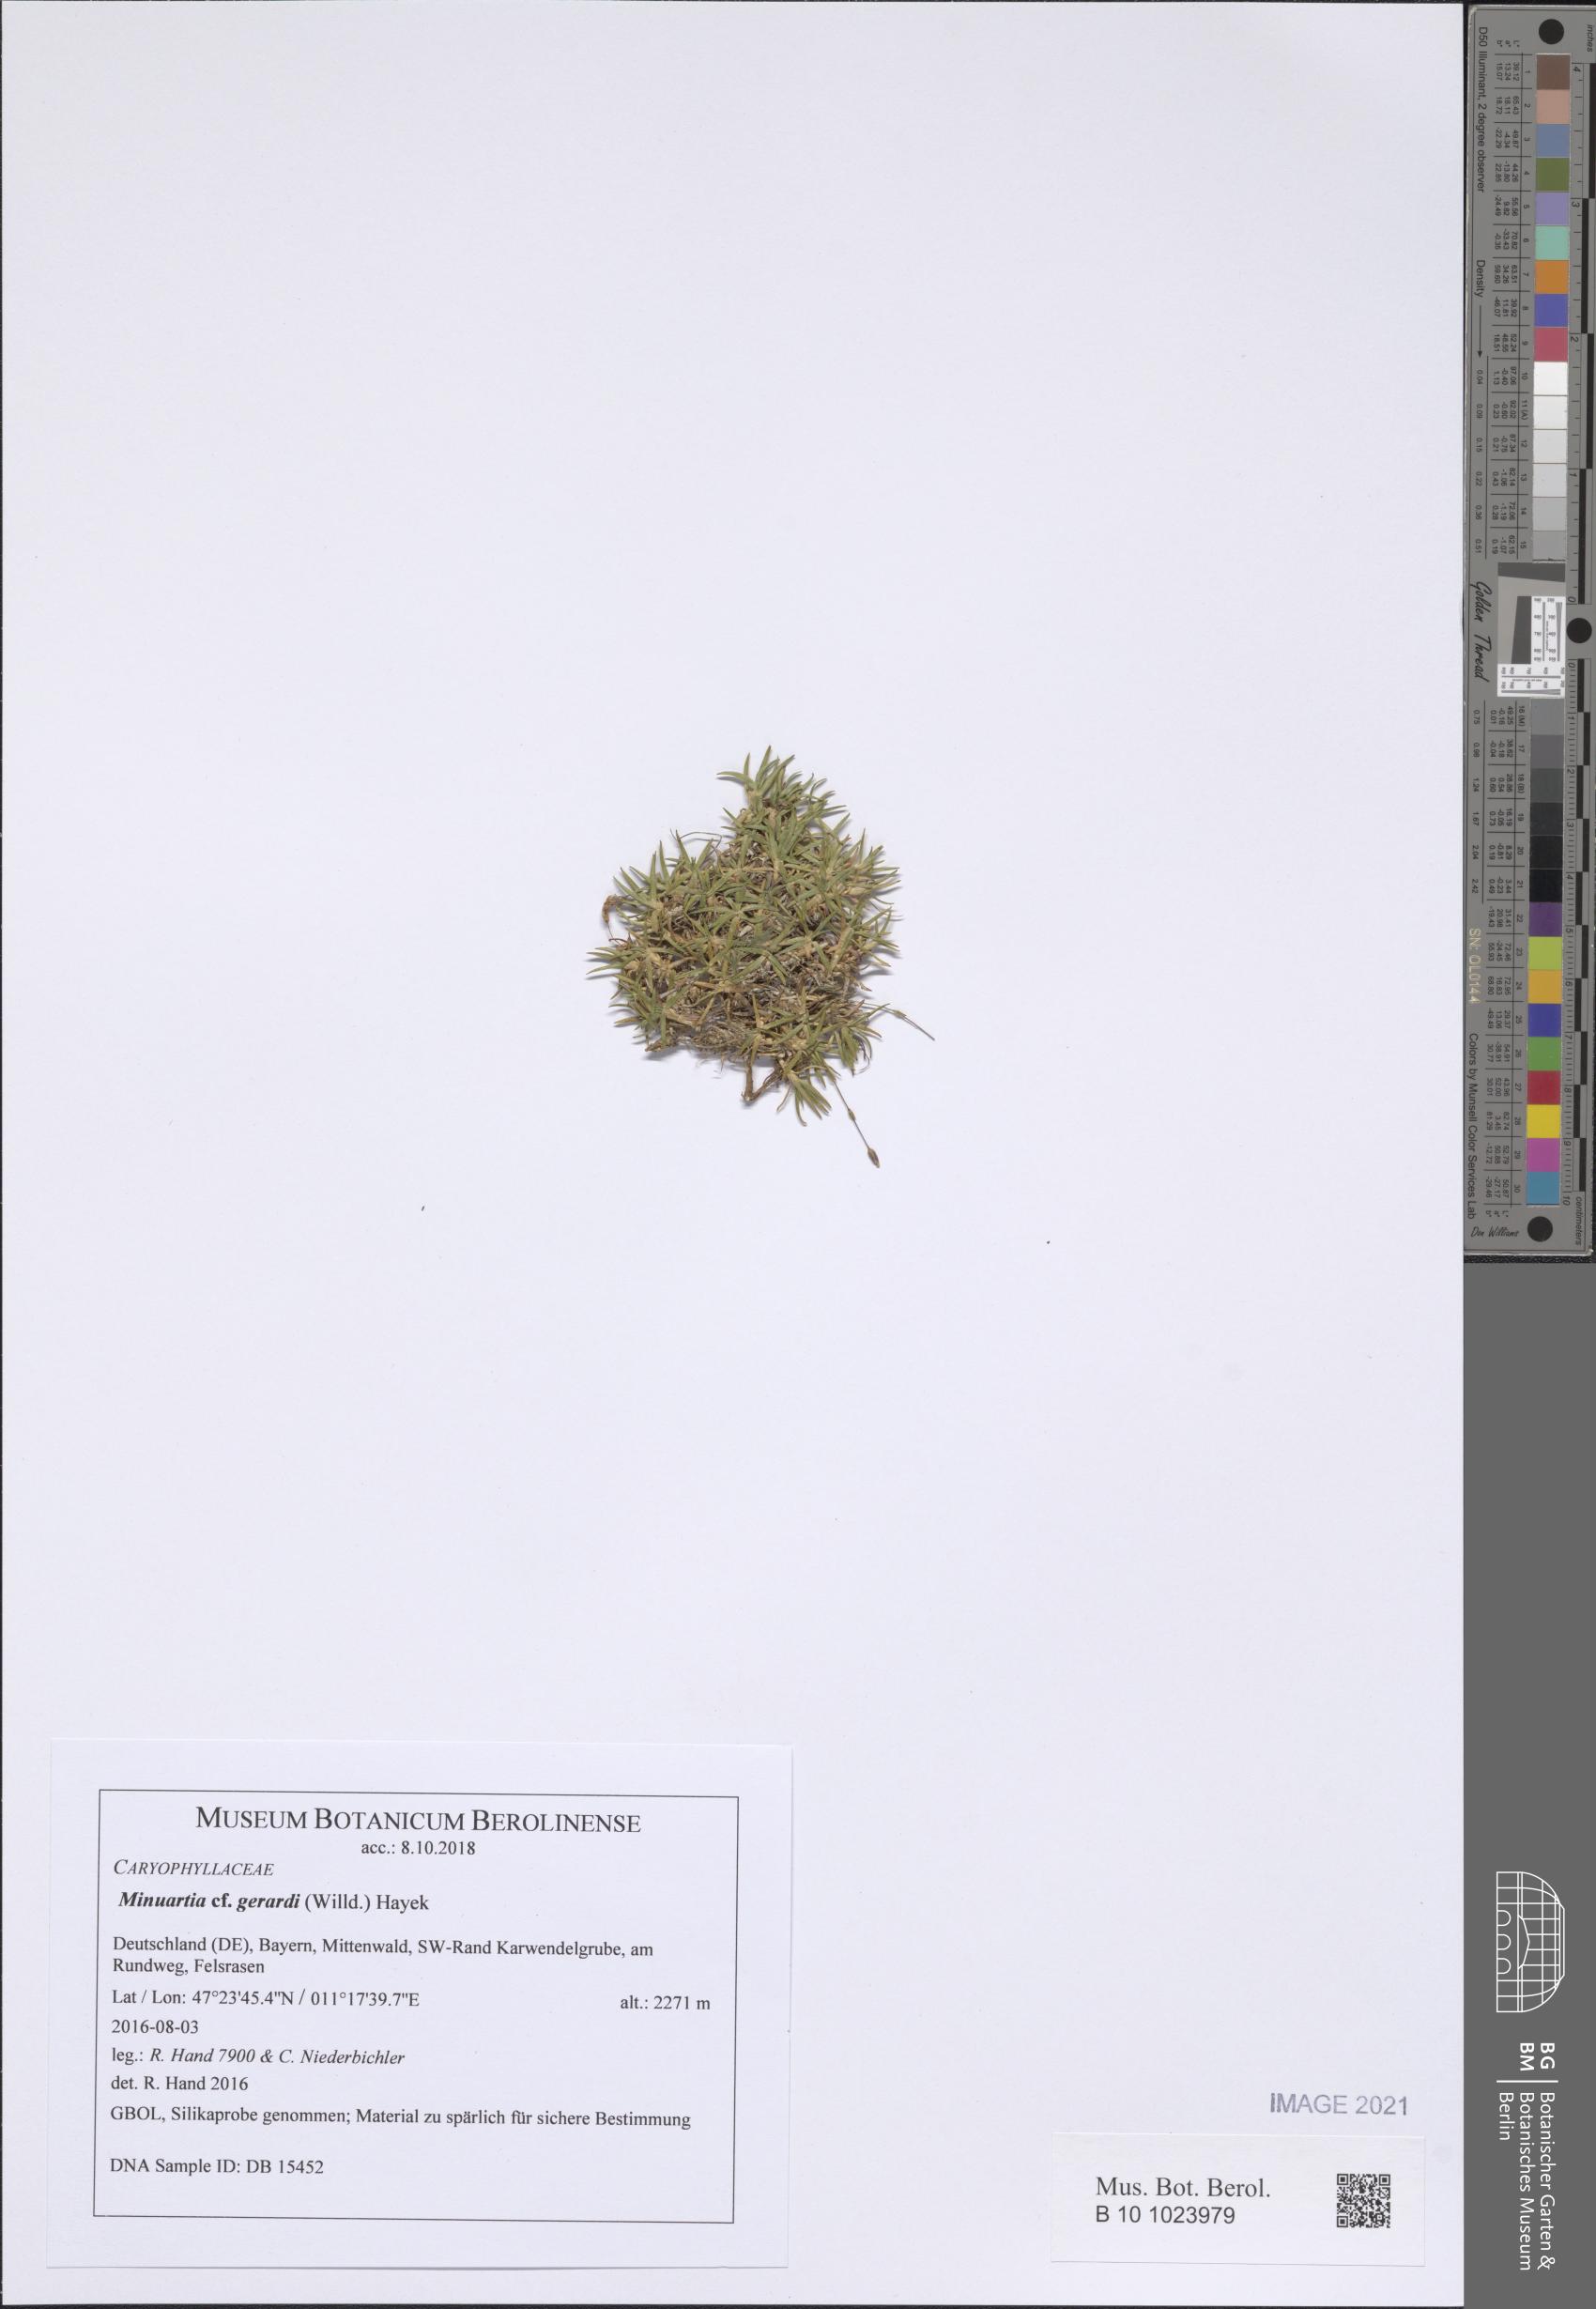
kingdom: Plantae
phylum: Tracheophyta
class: Magnoliopsida
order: Caryophyllales
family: Caryophyllaceae
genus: Sabulina
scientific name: Sabulina verna
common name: Spring sandwort
